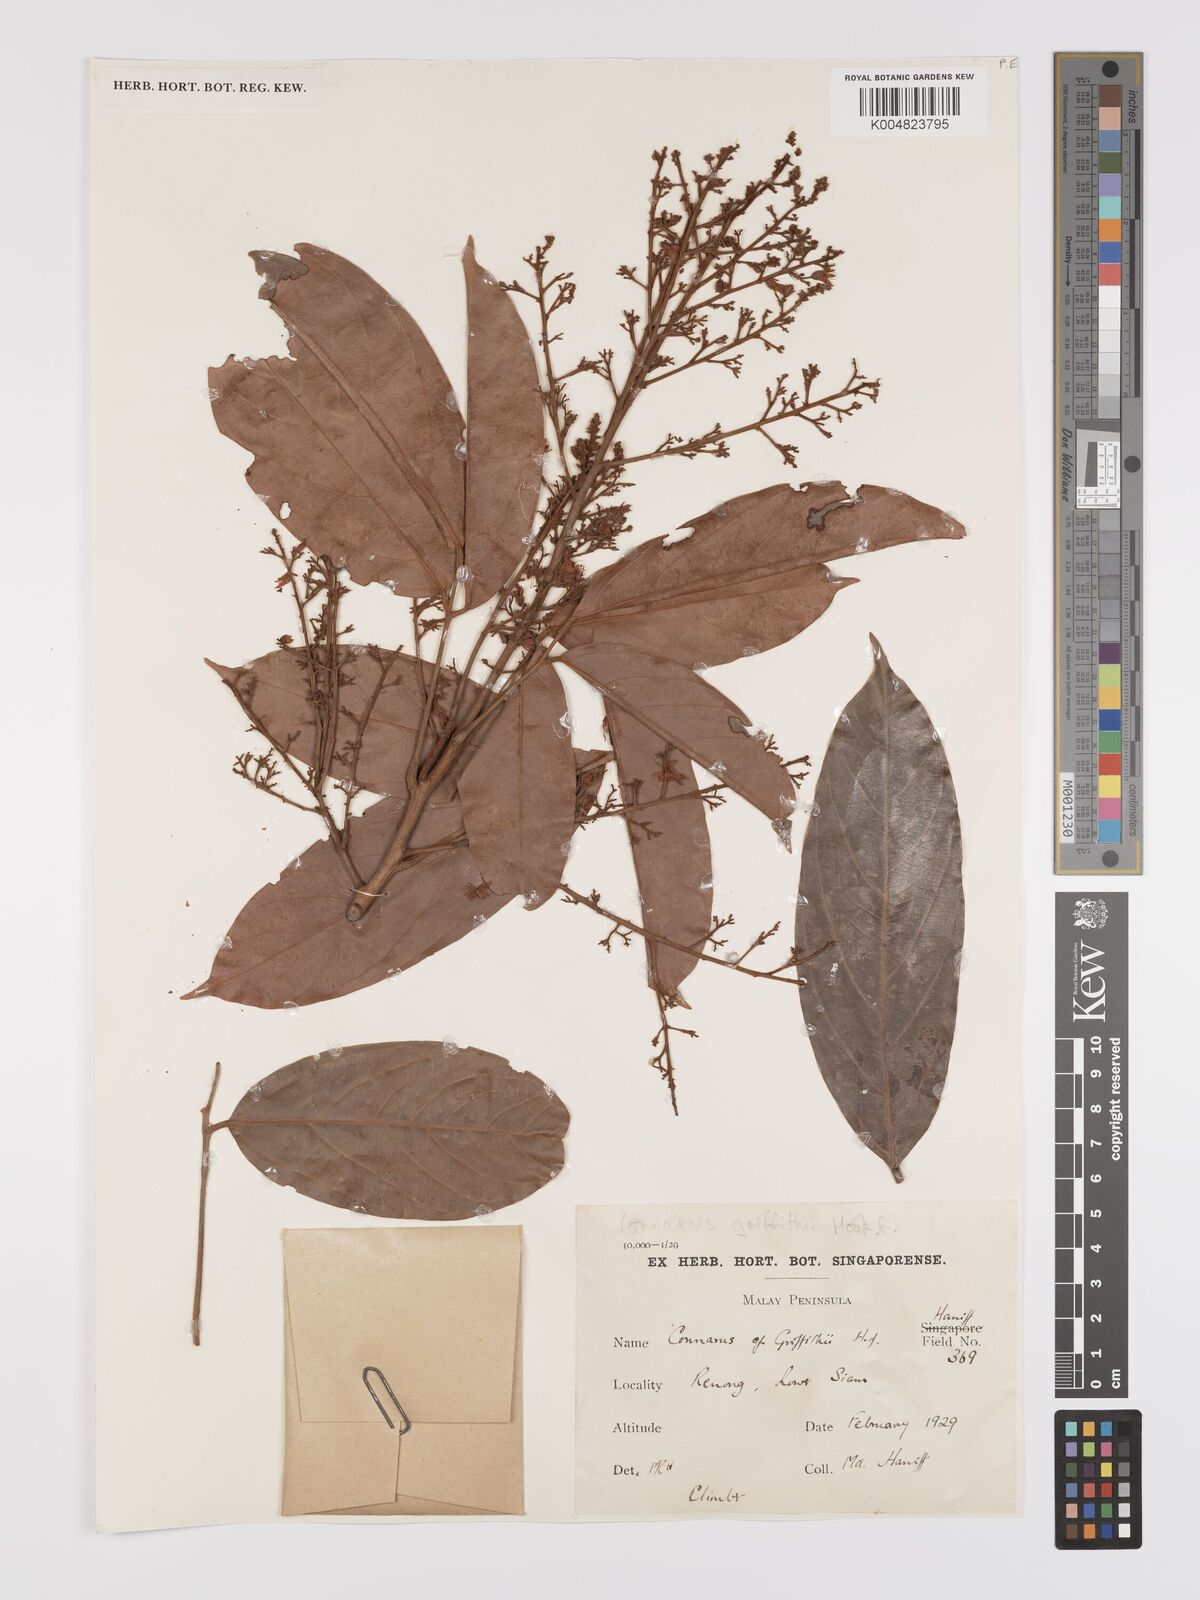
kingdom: Plantae
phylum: Tracheophyta
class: Magnoliopsida
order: Oxalidales
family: Connaraceae
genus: Connarus
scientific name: Connarus semidecandrus
